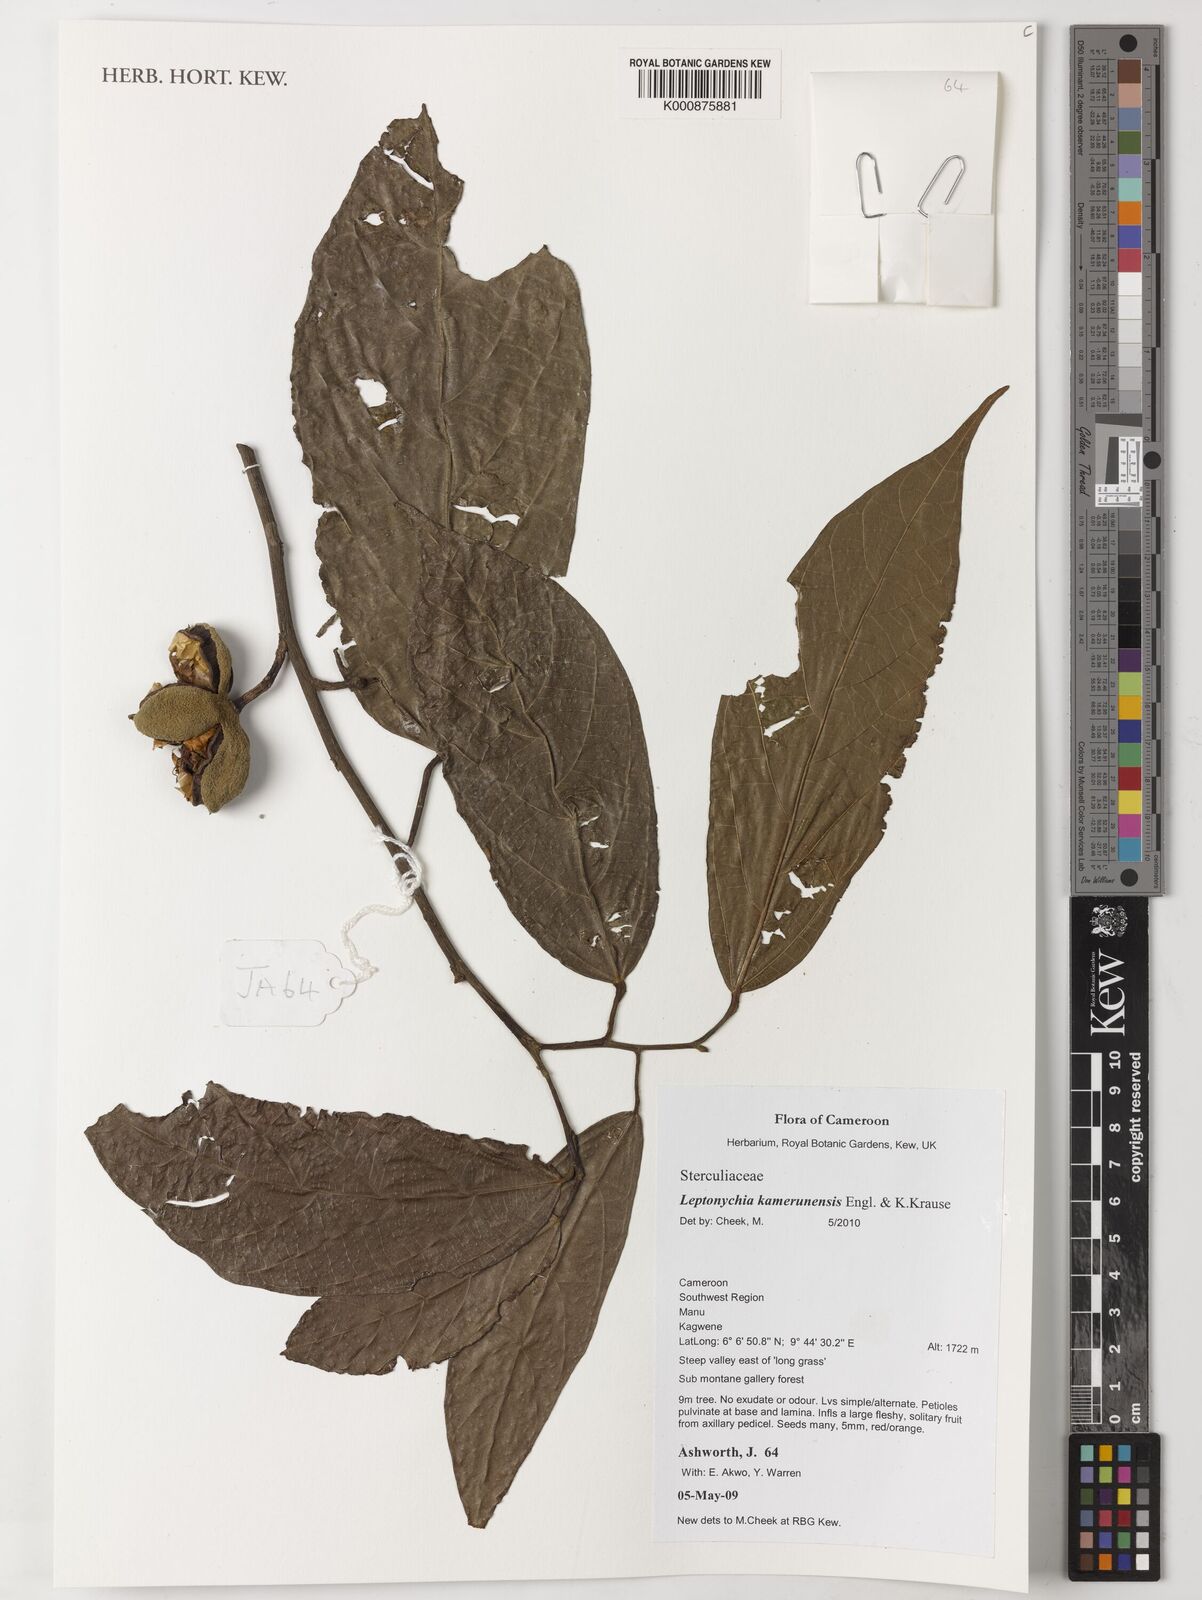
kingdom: Plantae
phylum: Tracheophyta
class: Magnoliopsida
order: Malvales
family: Malvaceae
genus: Leptonychia
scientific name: Leptonychia kamerunensis
